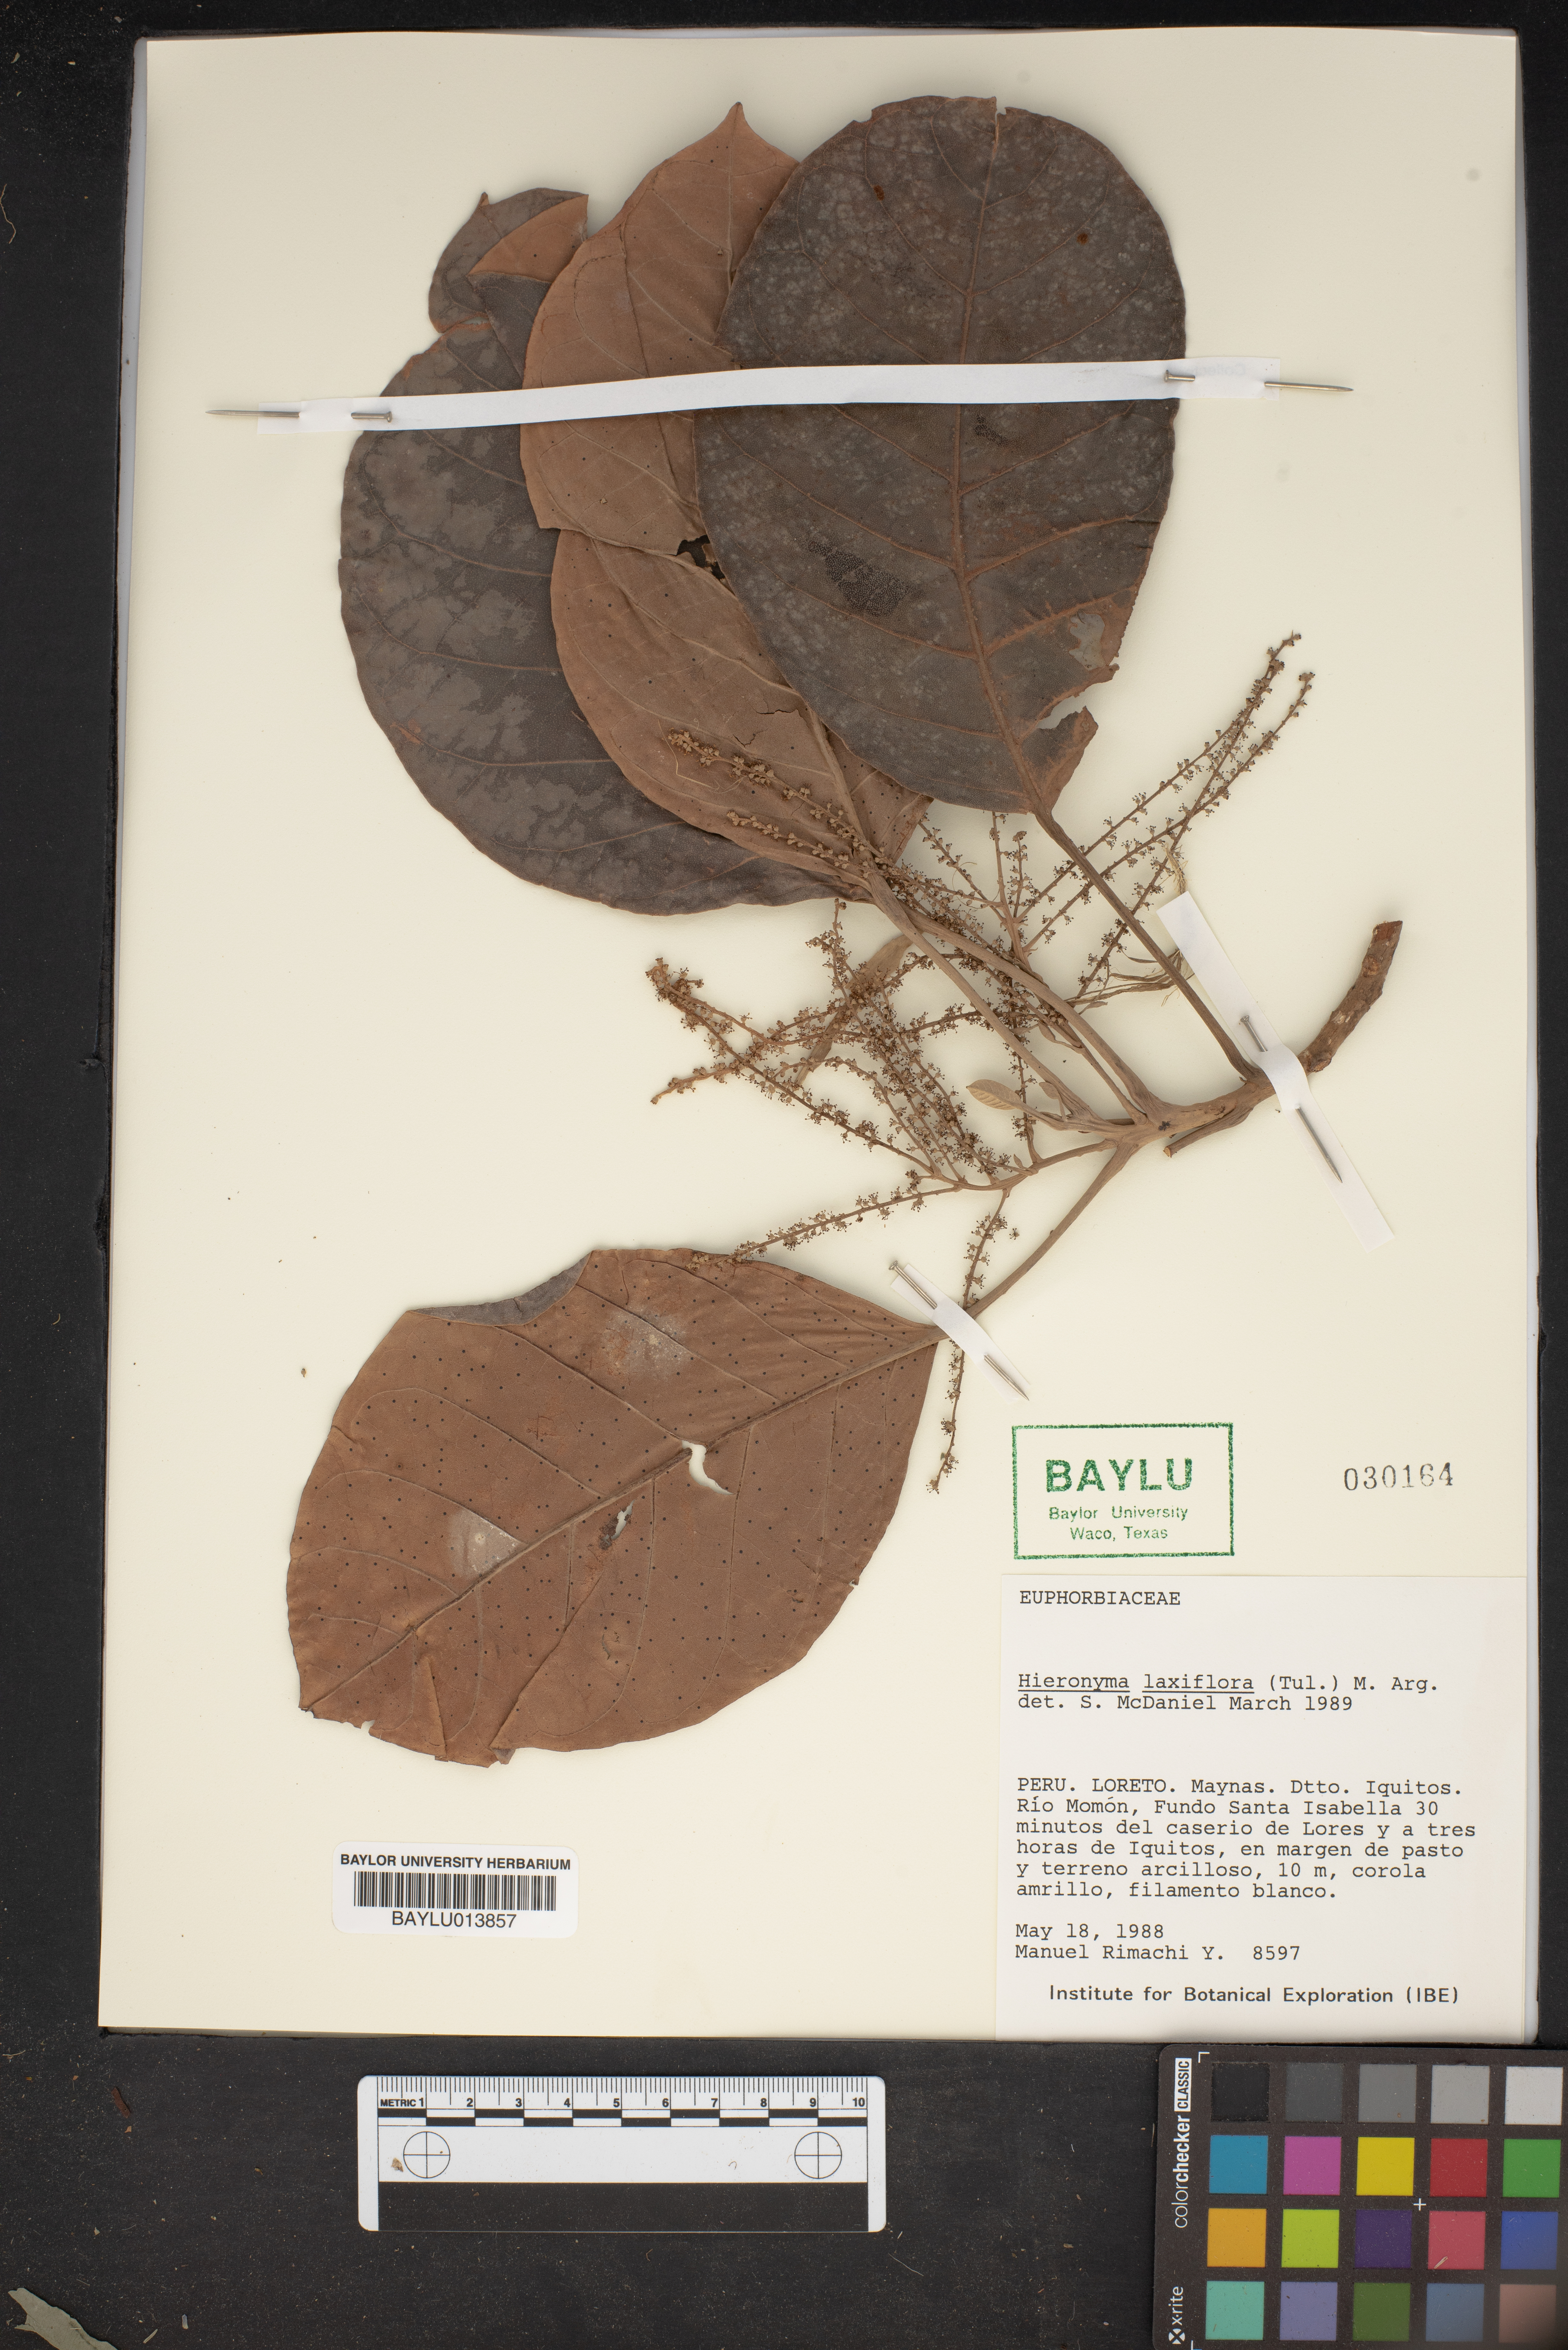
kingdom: Plantae
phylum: Tracheophyta
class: Magnoliopsida
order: Malpighiales
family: Phyllanthaceae
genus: Hieronyma
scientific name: Hieronyma alchorneoides
